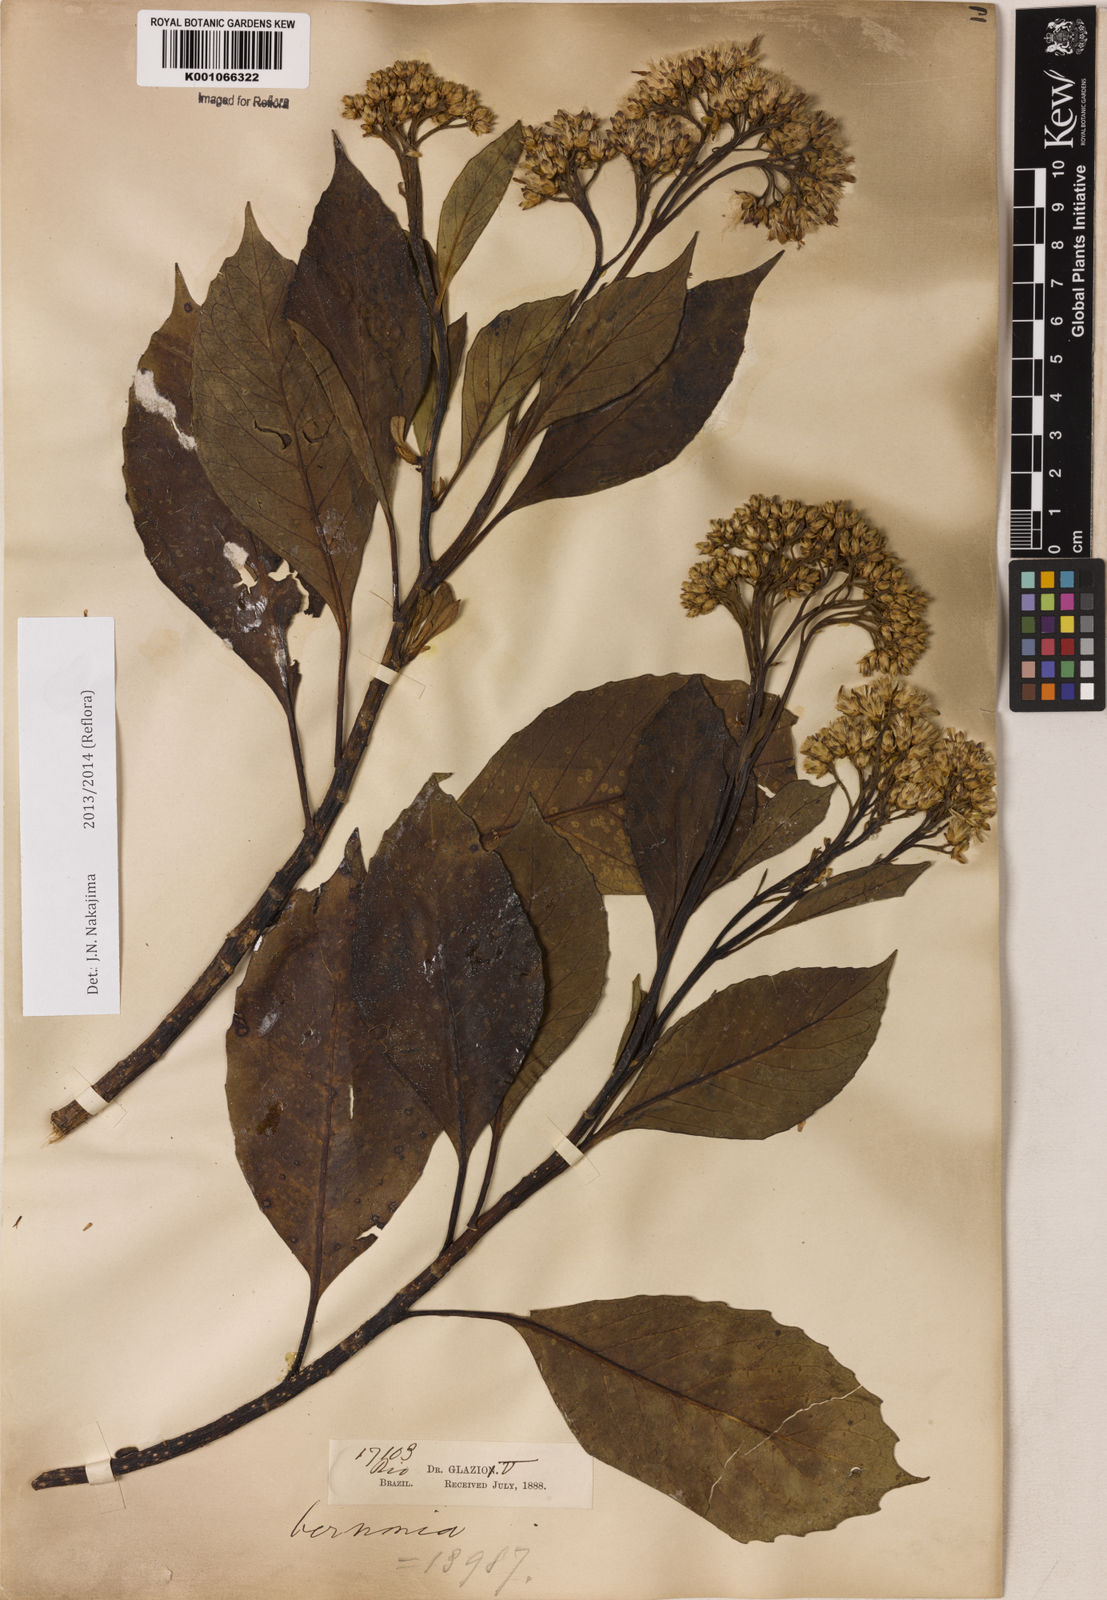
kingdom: Plantae
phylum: Tracheophyta
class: Magnoliopsida
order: Asterales
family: Asteraceae
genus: Gymnanthemum
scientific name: Gymnanthemum amygdalinum
